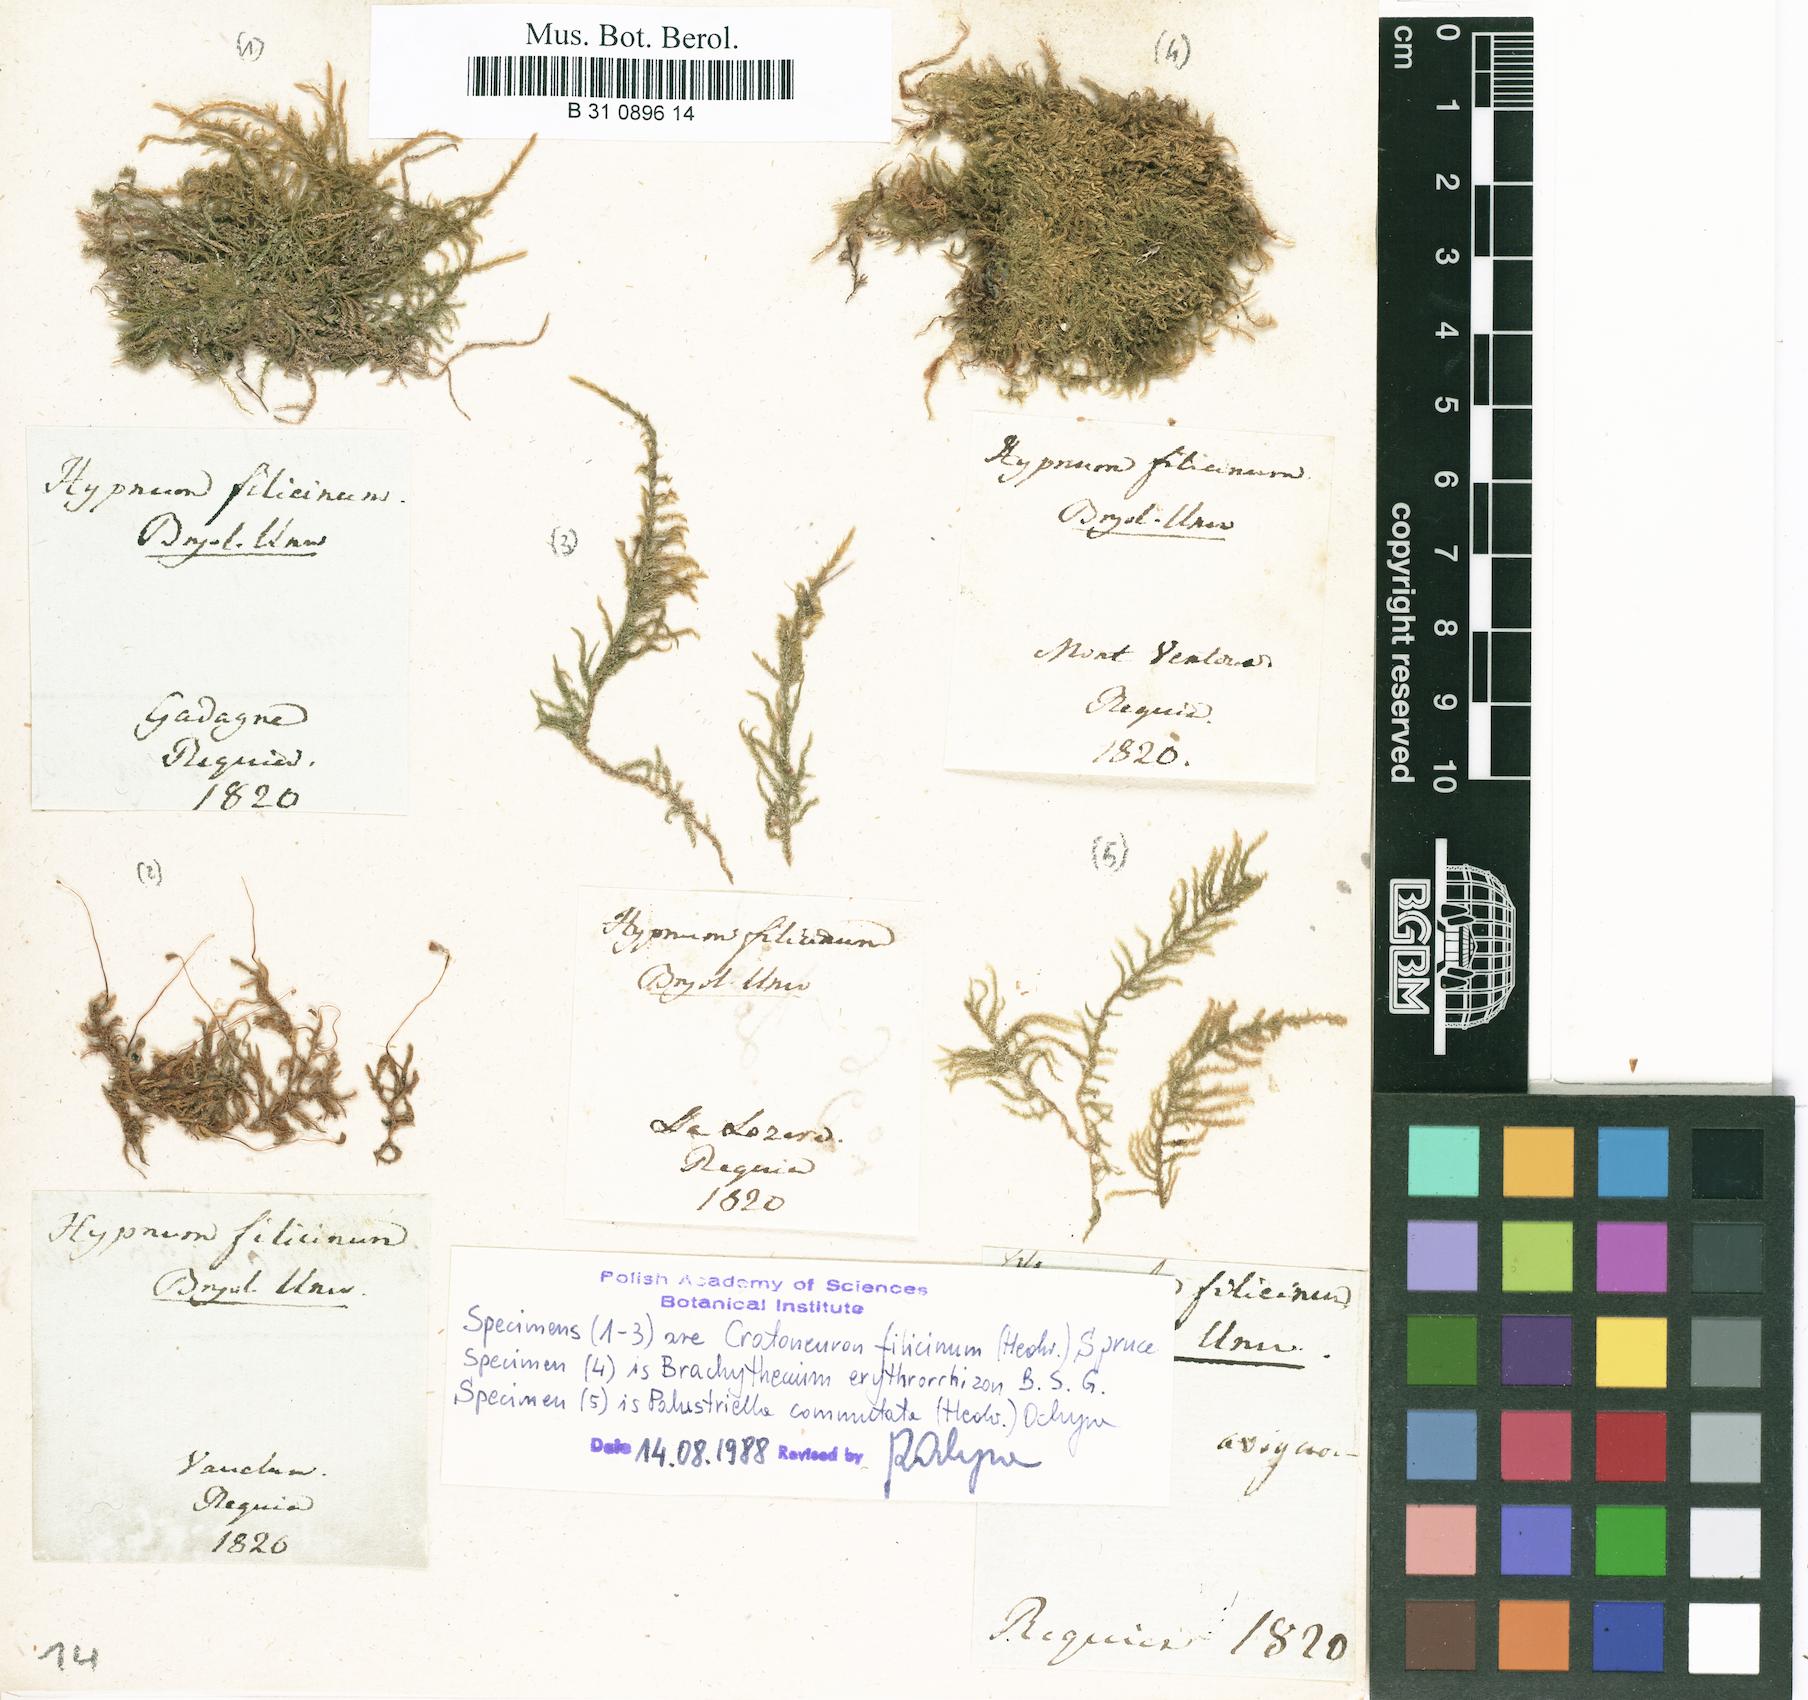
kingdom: Plantae
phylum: Bryophyta
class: Bryopsida
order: Hypnales
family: Amblystegiaceae
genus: Cratoneuron
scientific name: Cratoneuron filicinum
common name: Fern-leaved hook moss
